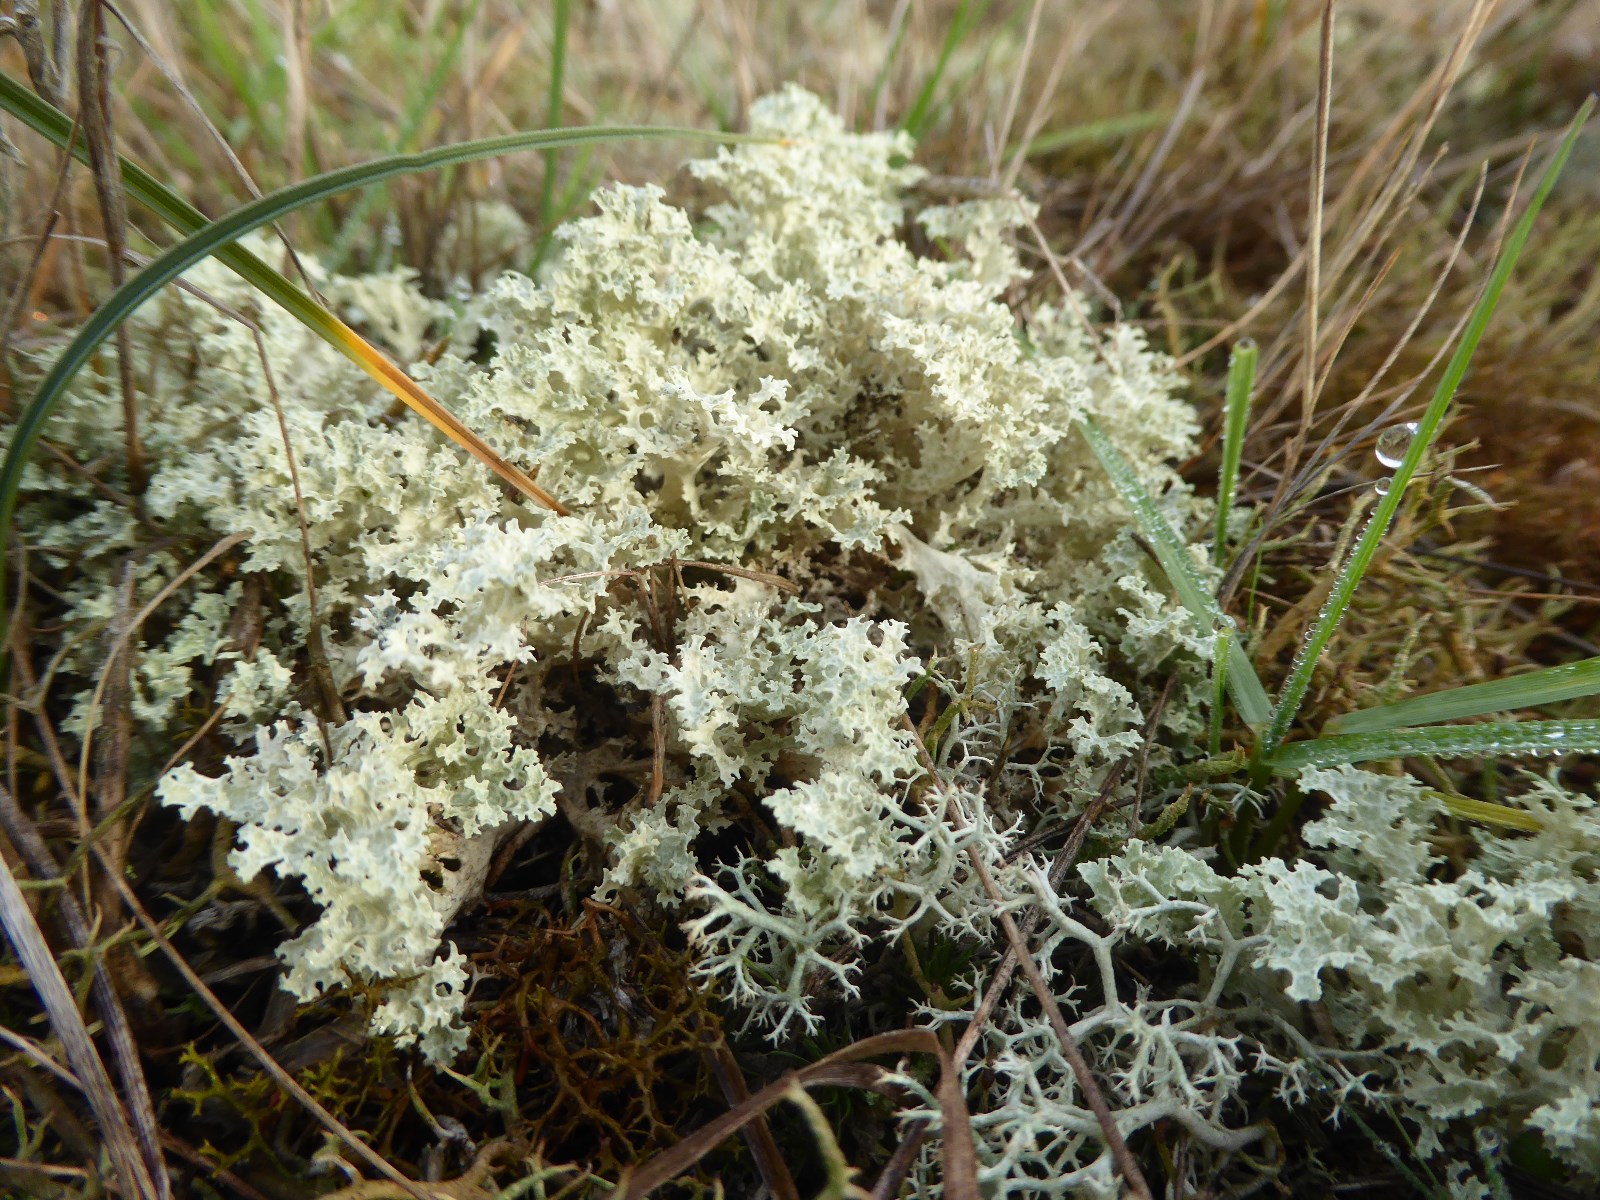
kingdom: Fungi
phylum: Ascomycota
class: Lecanoromycetes
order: Lecanorales
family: Parmeliaceae
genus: Nephromopsis
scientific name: Nephromopsis nivalis
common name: sne-kruslav
